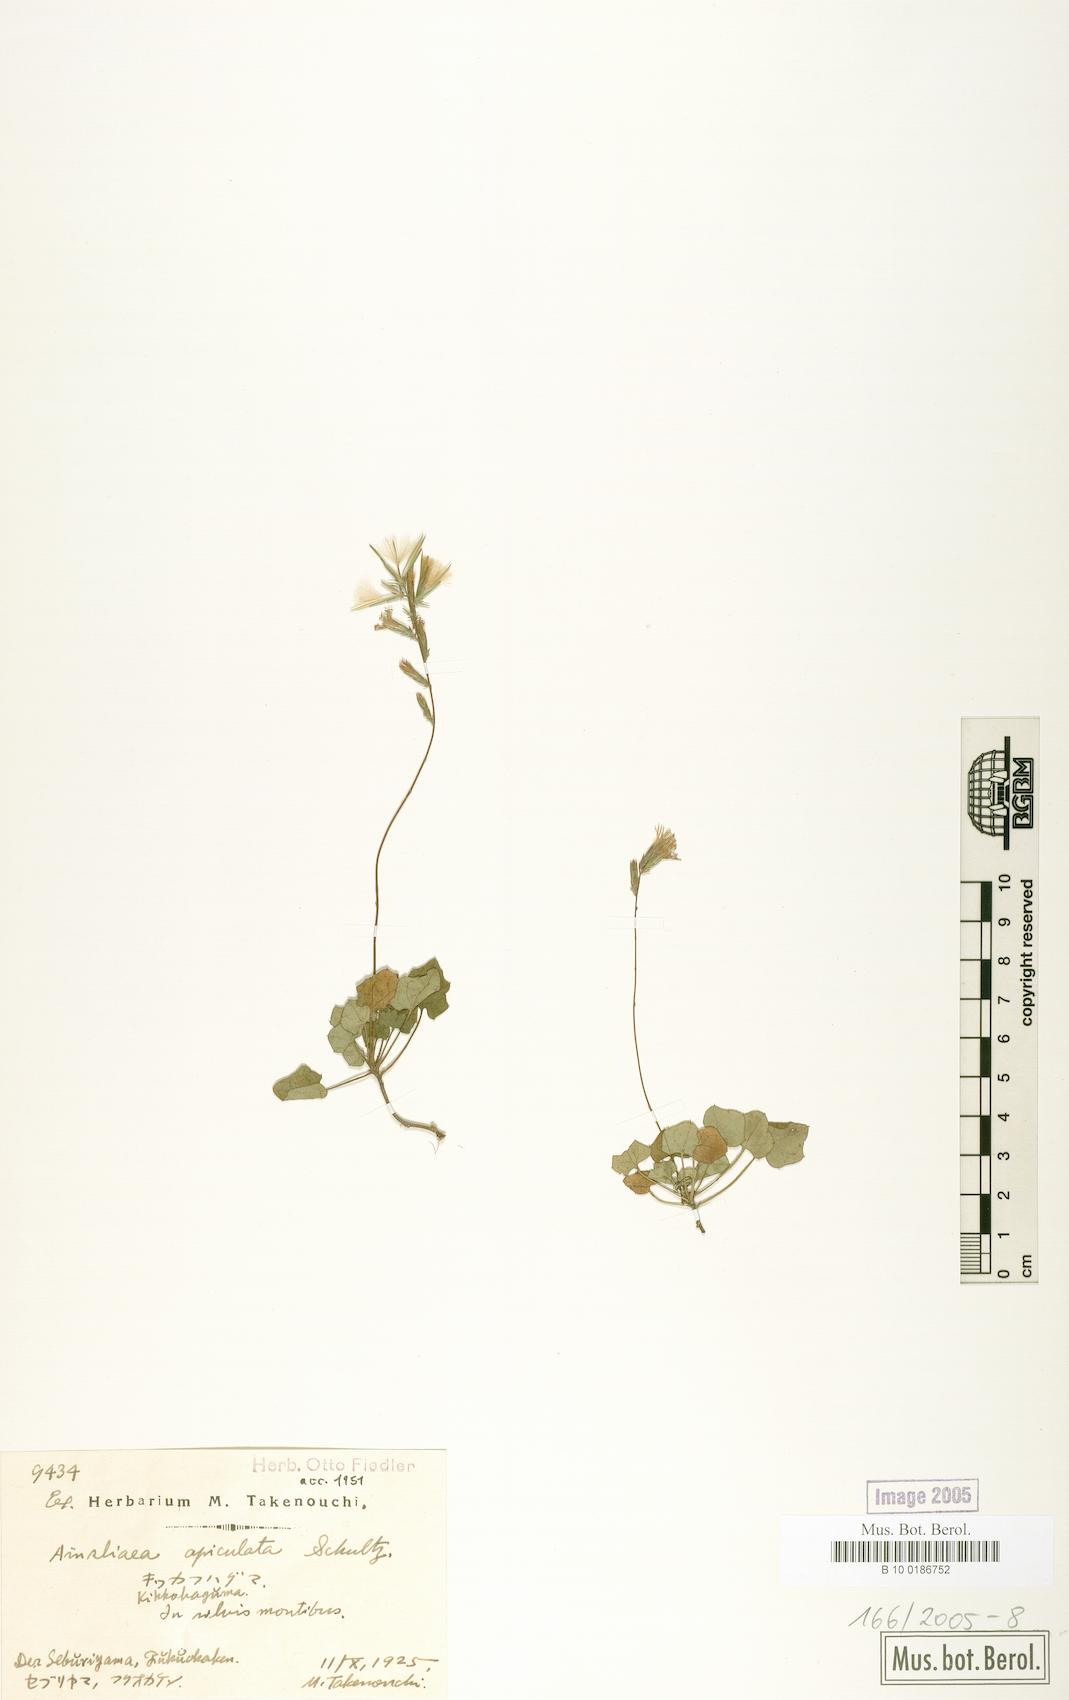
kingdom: Plantae
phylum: Tracheophyta
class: Magnoliopsida
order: Asterales
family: Asteraceae
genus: Ainsliaea
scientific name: Ainsliaea apiculata
